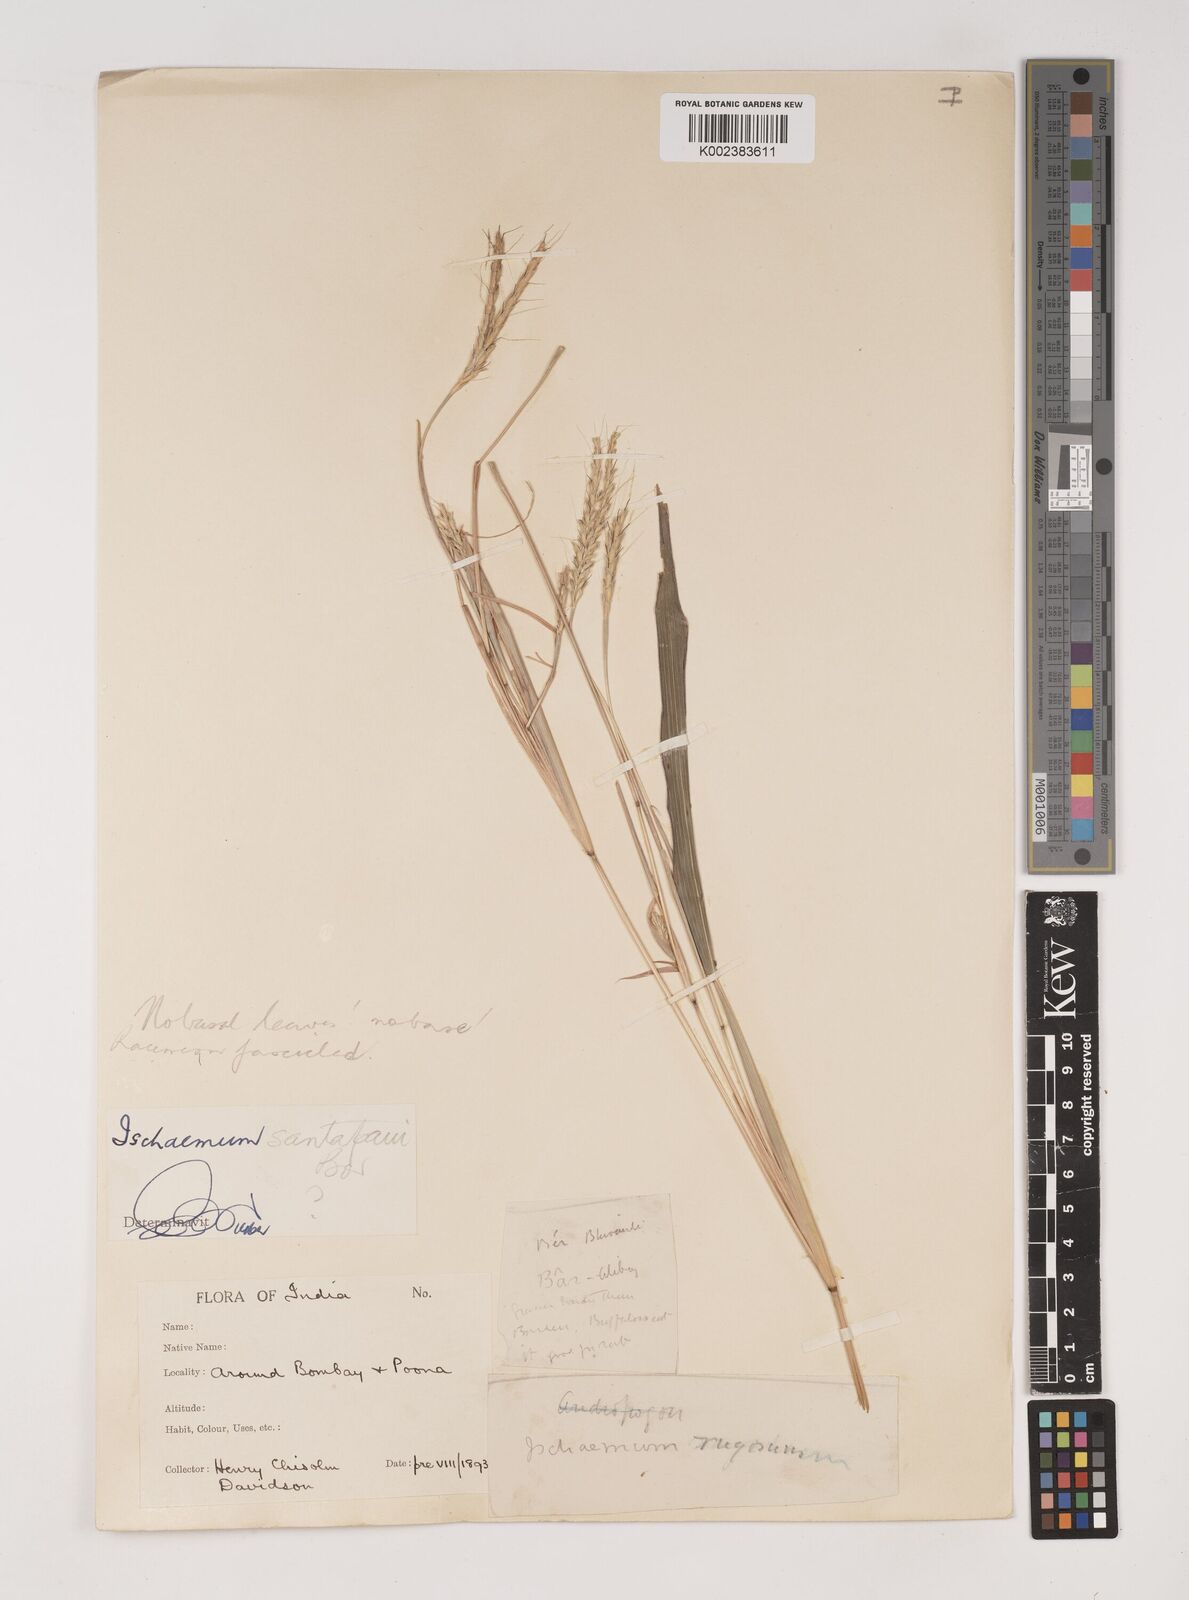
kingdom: Plantae
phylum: Tracheophyta
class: Liliopsida
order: Poales
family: Poaceae
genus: Ischaemum
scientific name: Ischaemum santapaui
